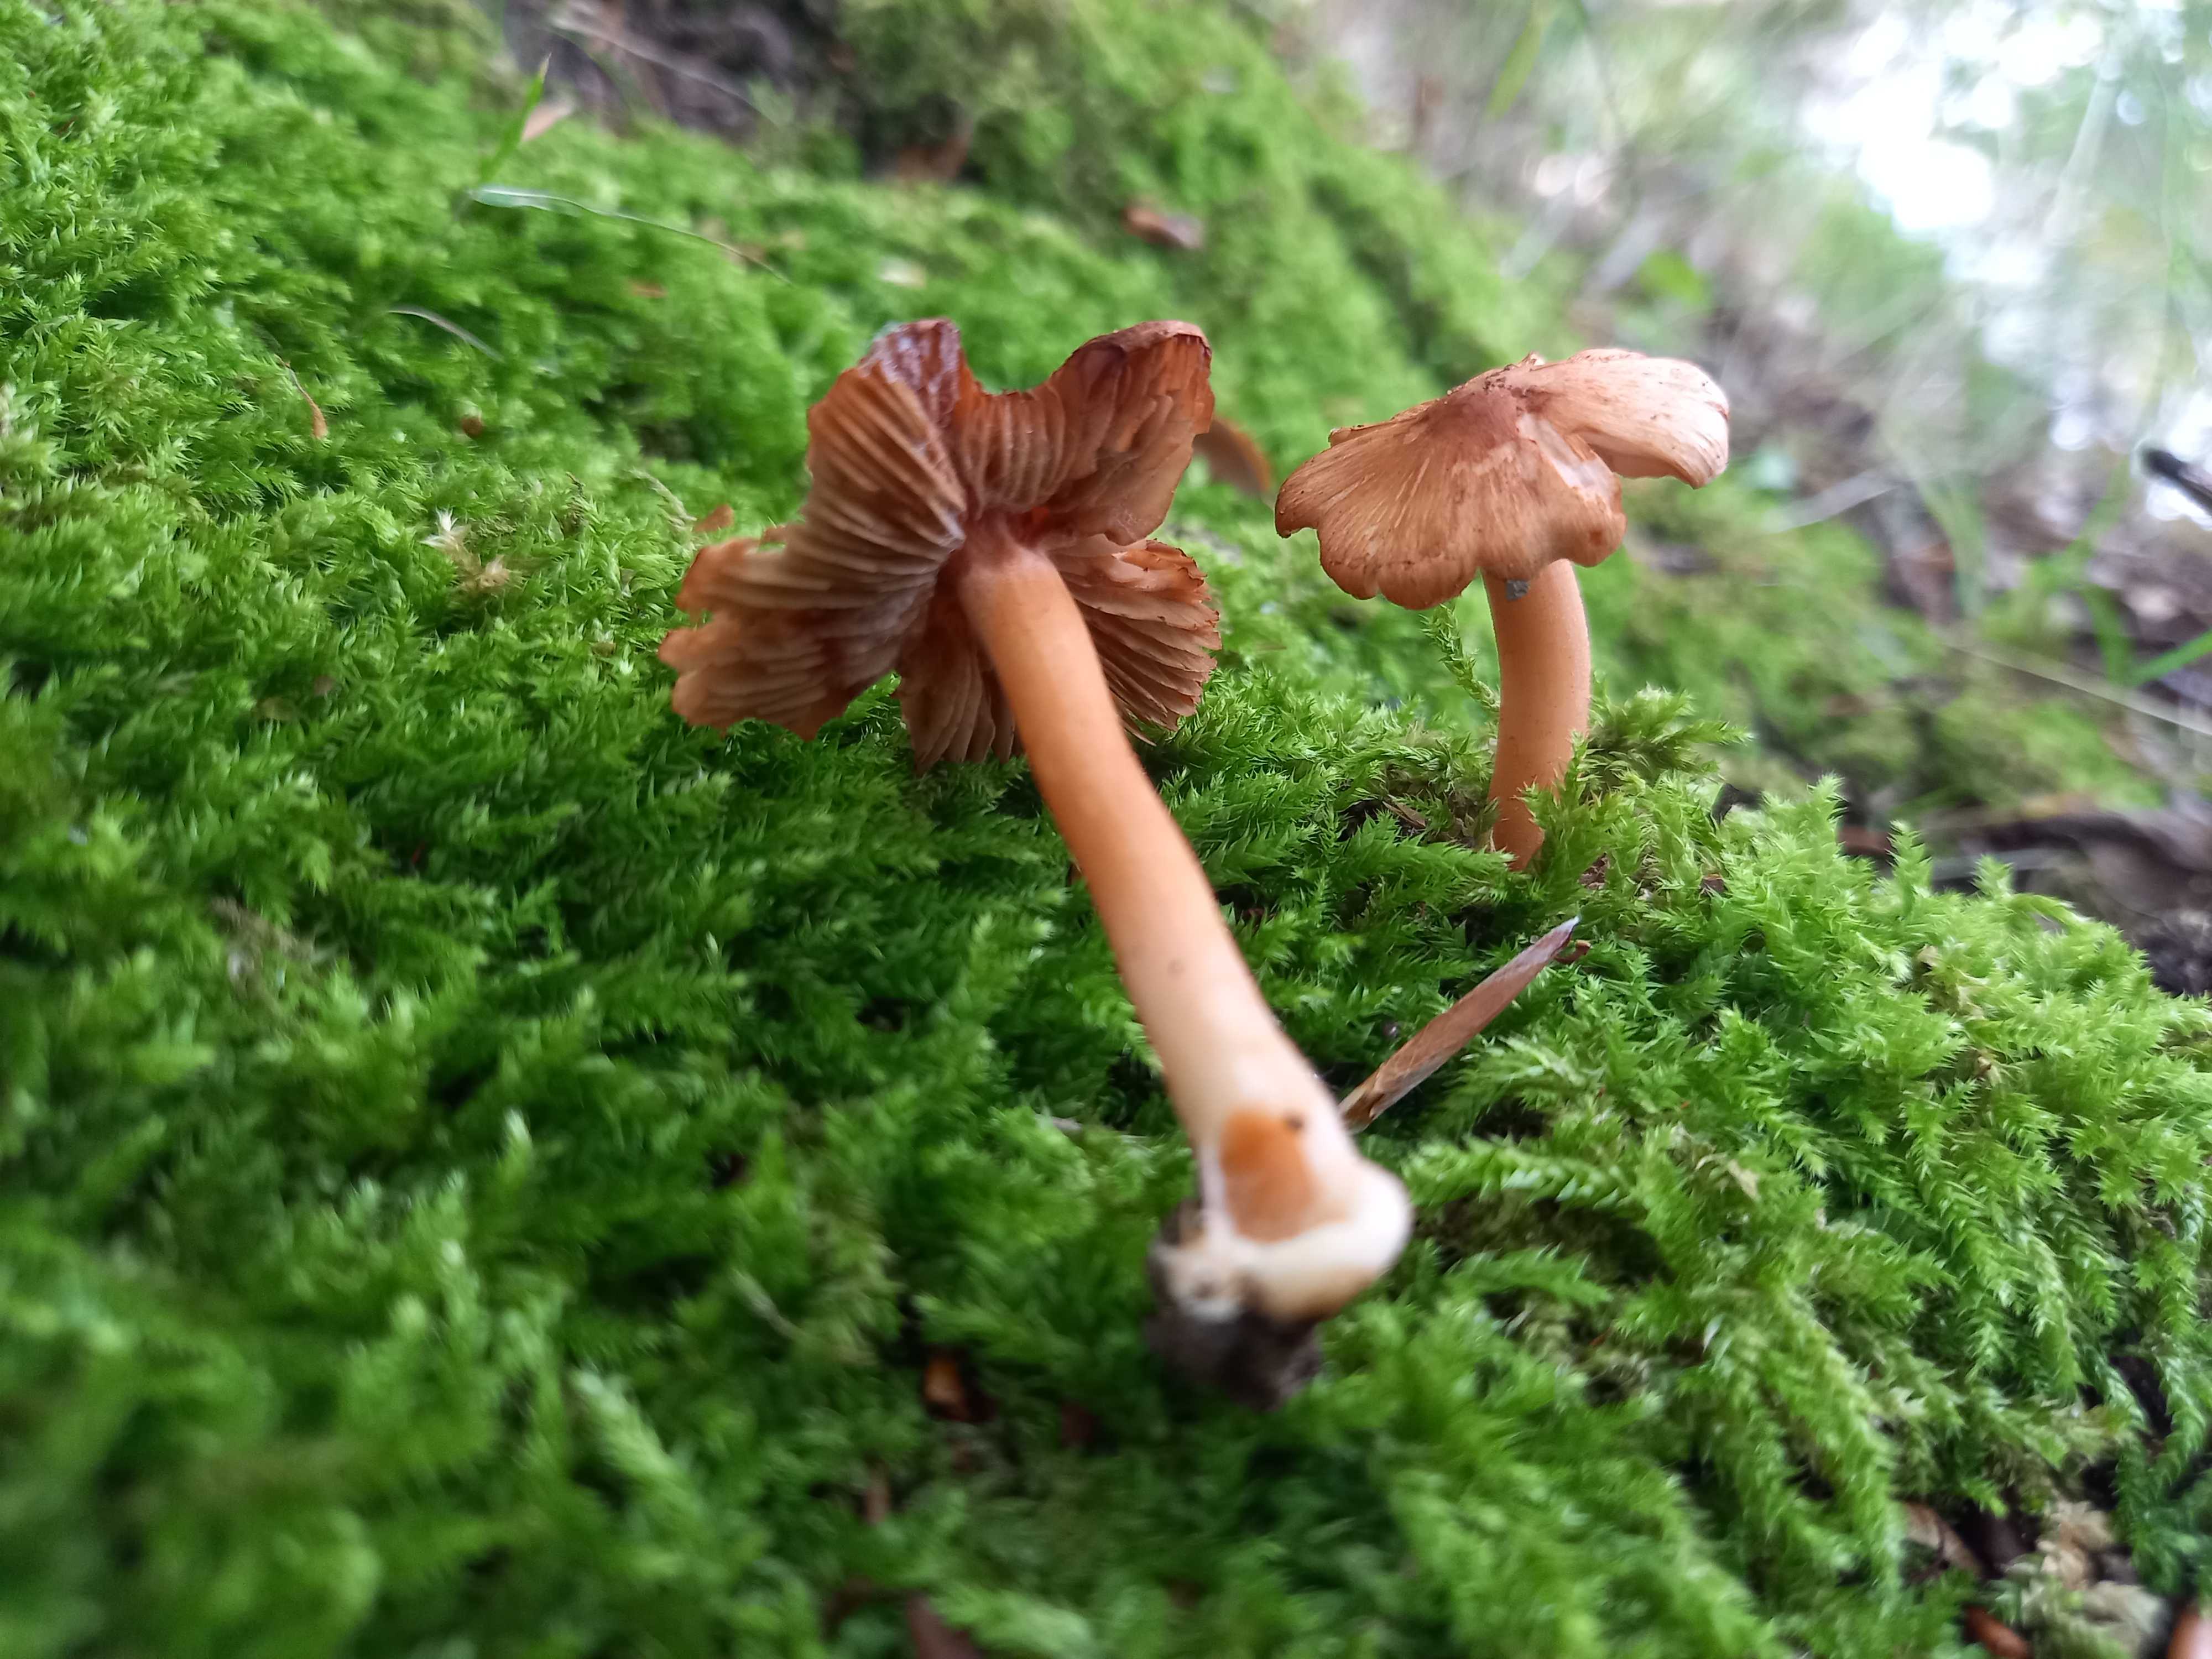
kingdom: Fungi
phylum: Basidiomycota
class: Agaricomycetes
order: Agaricales
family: Inocybaceae
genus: Inocybe
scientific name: Inocybe godeyi
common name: orangerødmende trævlhat
